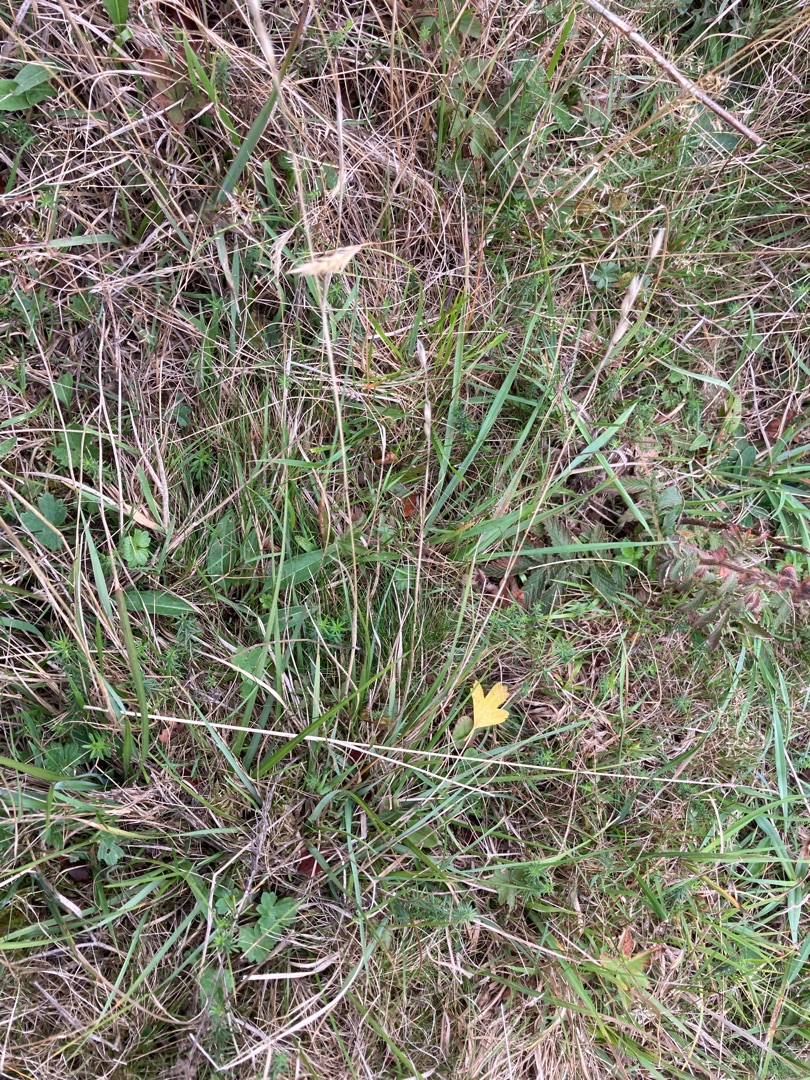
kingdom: Plantae
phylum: Tracheophyta
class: Liliopsida
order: Poales
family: Poaceae
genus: Danthonia
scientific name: Danthonia decumbens
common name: Tandbælg
